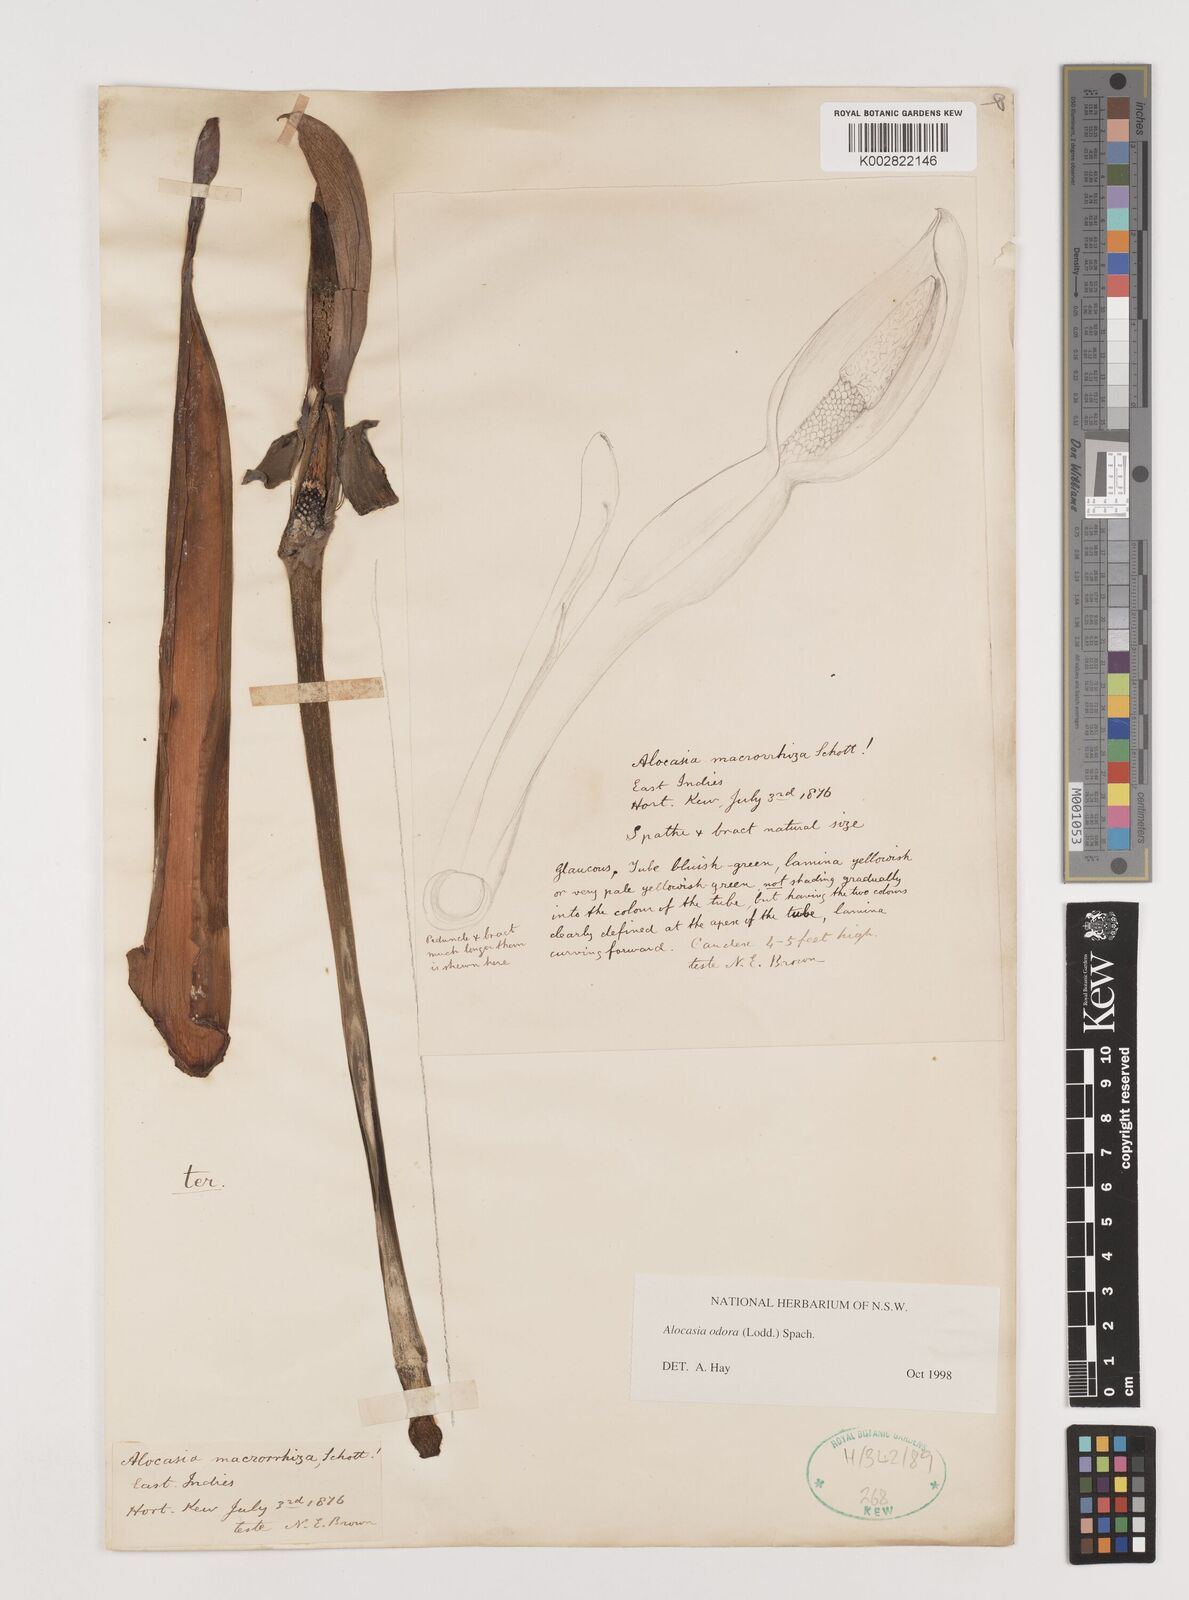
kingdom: Plantae
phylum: Tracheophyta
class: Liliopsida
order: Alismatales
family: Araceae
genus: Alocasia
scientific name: Alocasia odora
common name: Asian taro
